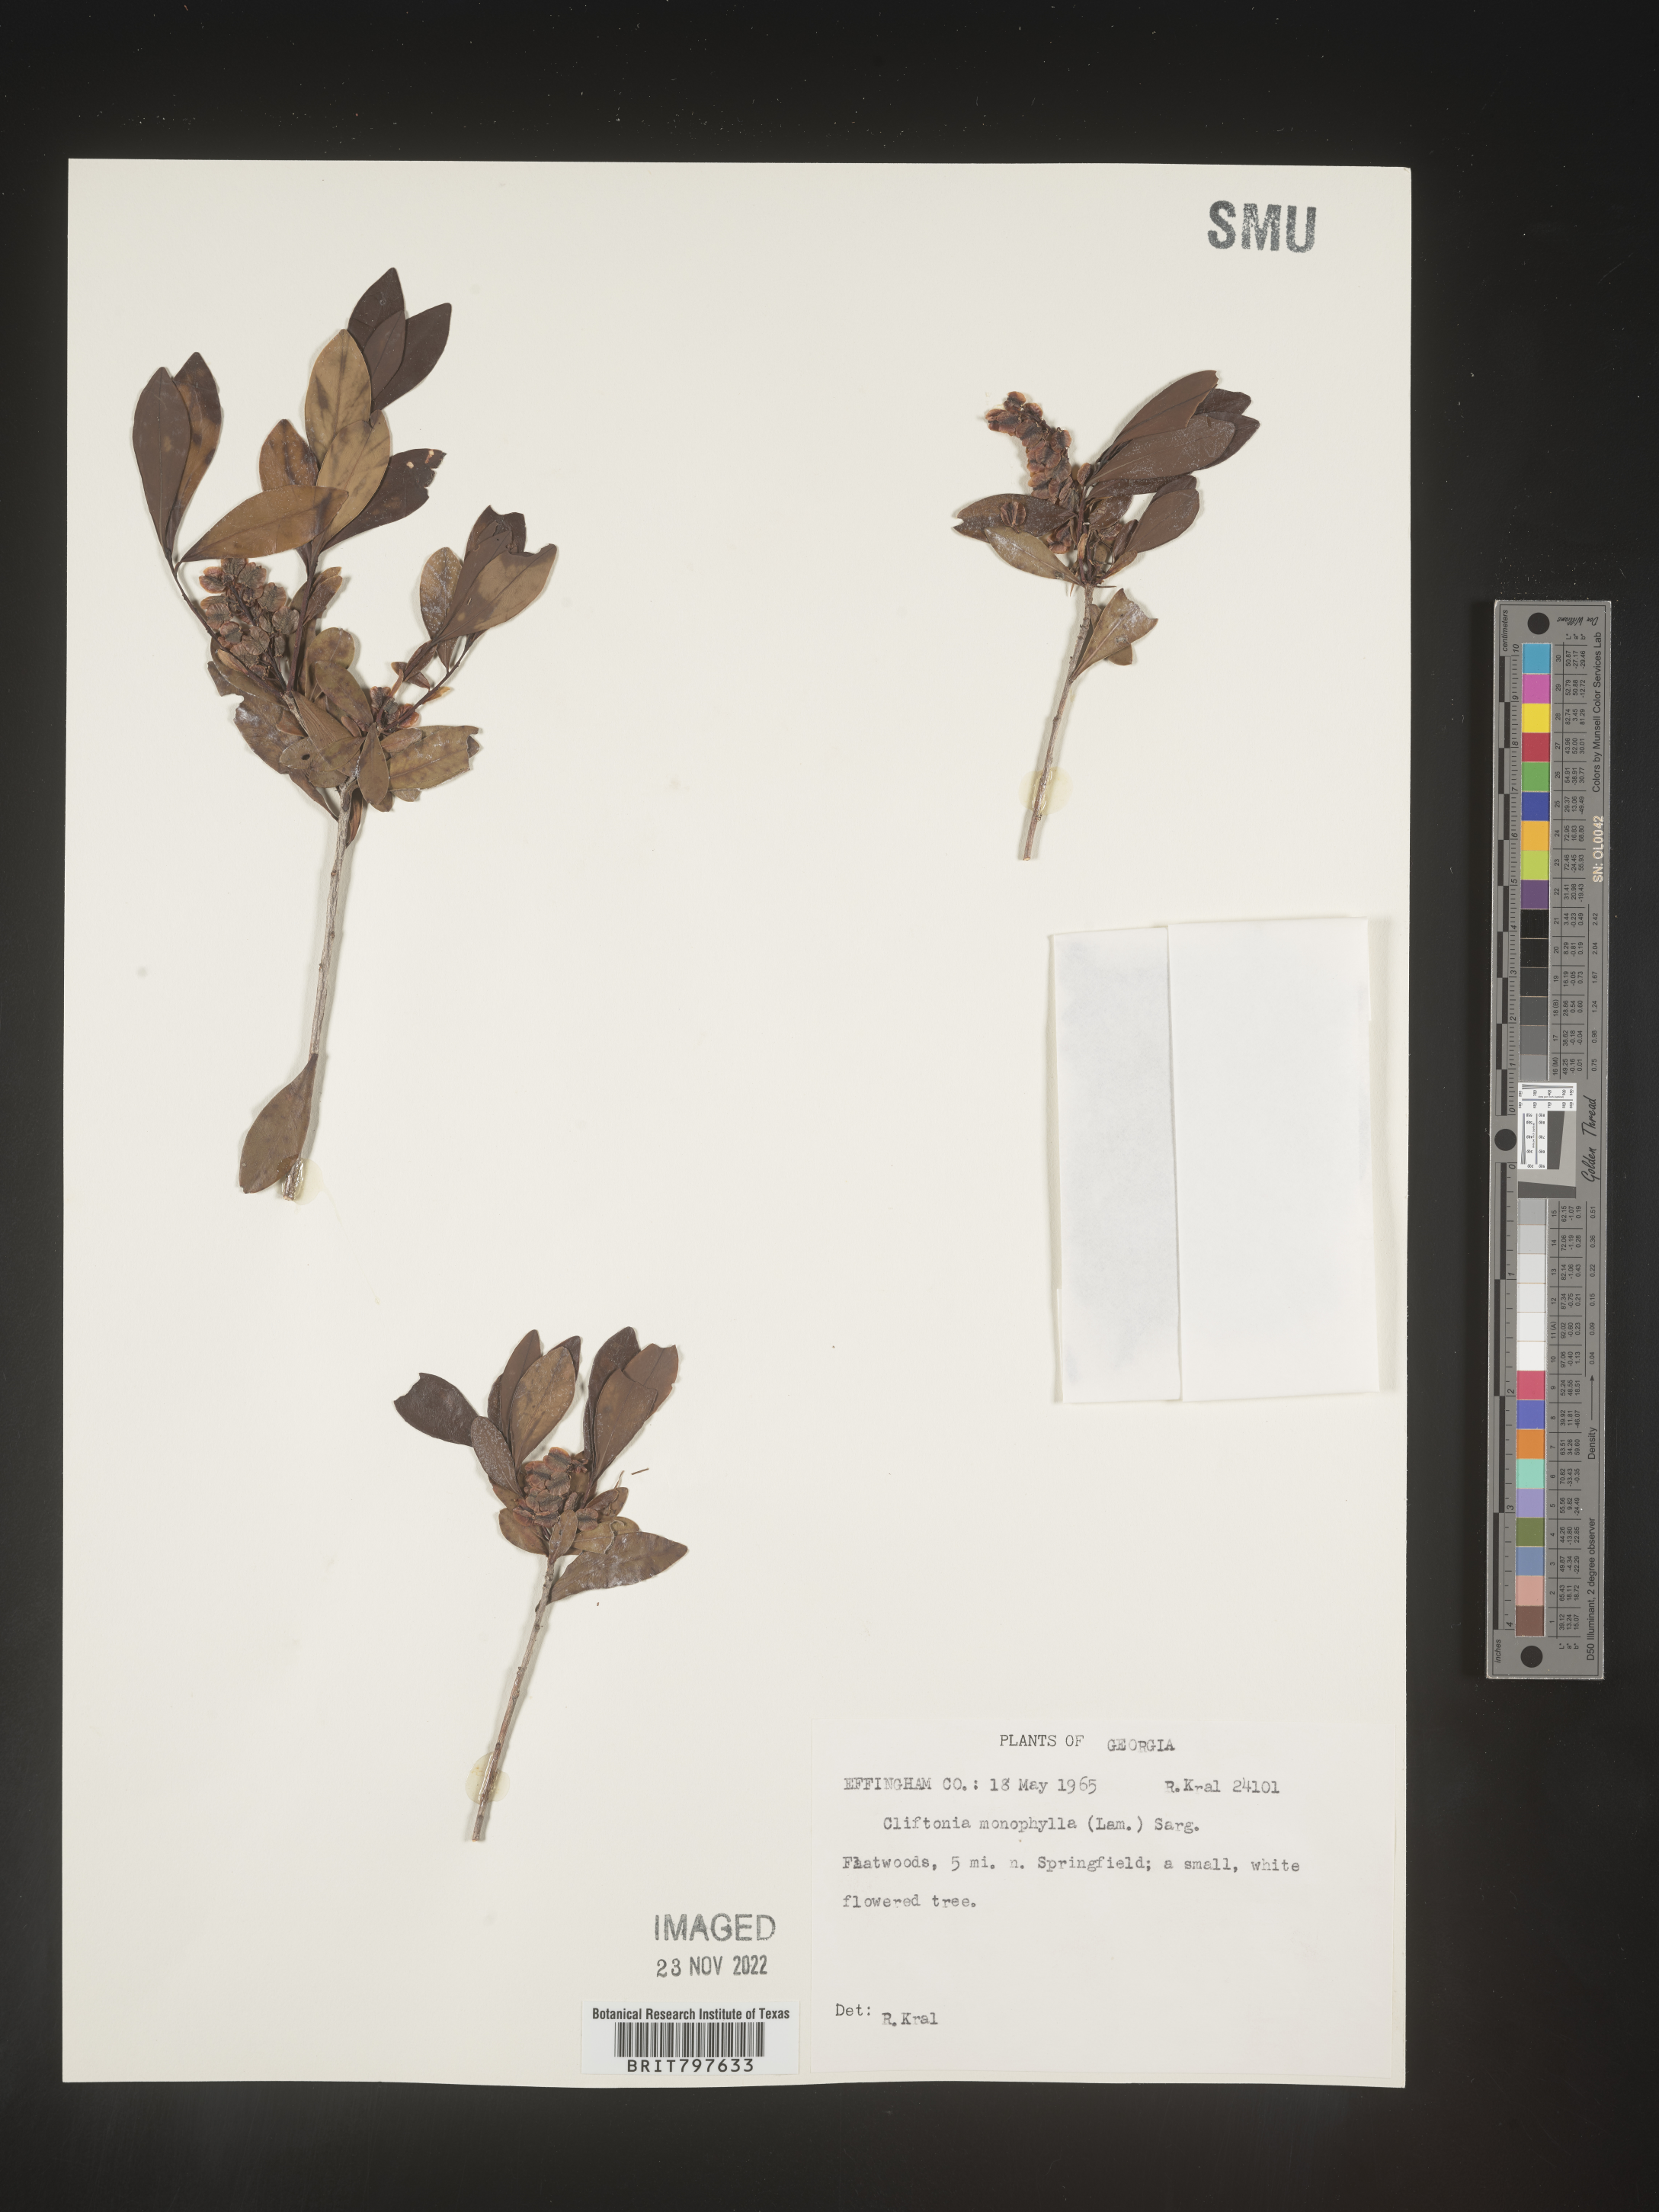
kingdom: Plantae
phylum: Tracheophyta
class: Magnoliopsida
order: Ericales
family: Cyrillaceae
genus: Cliftonia
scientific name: Cliftonia monophylla
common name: Titi
